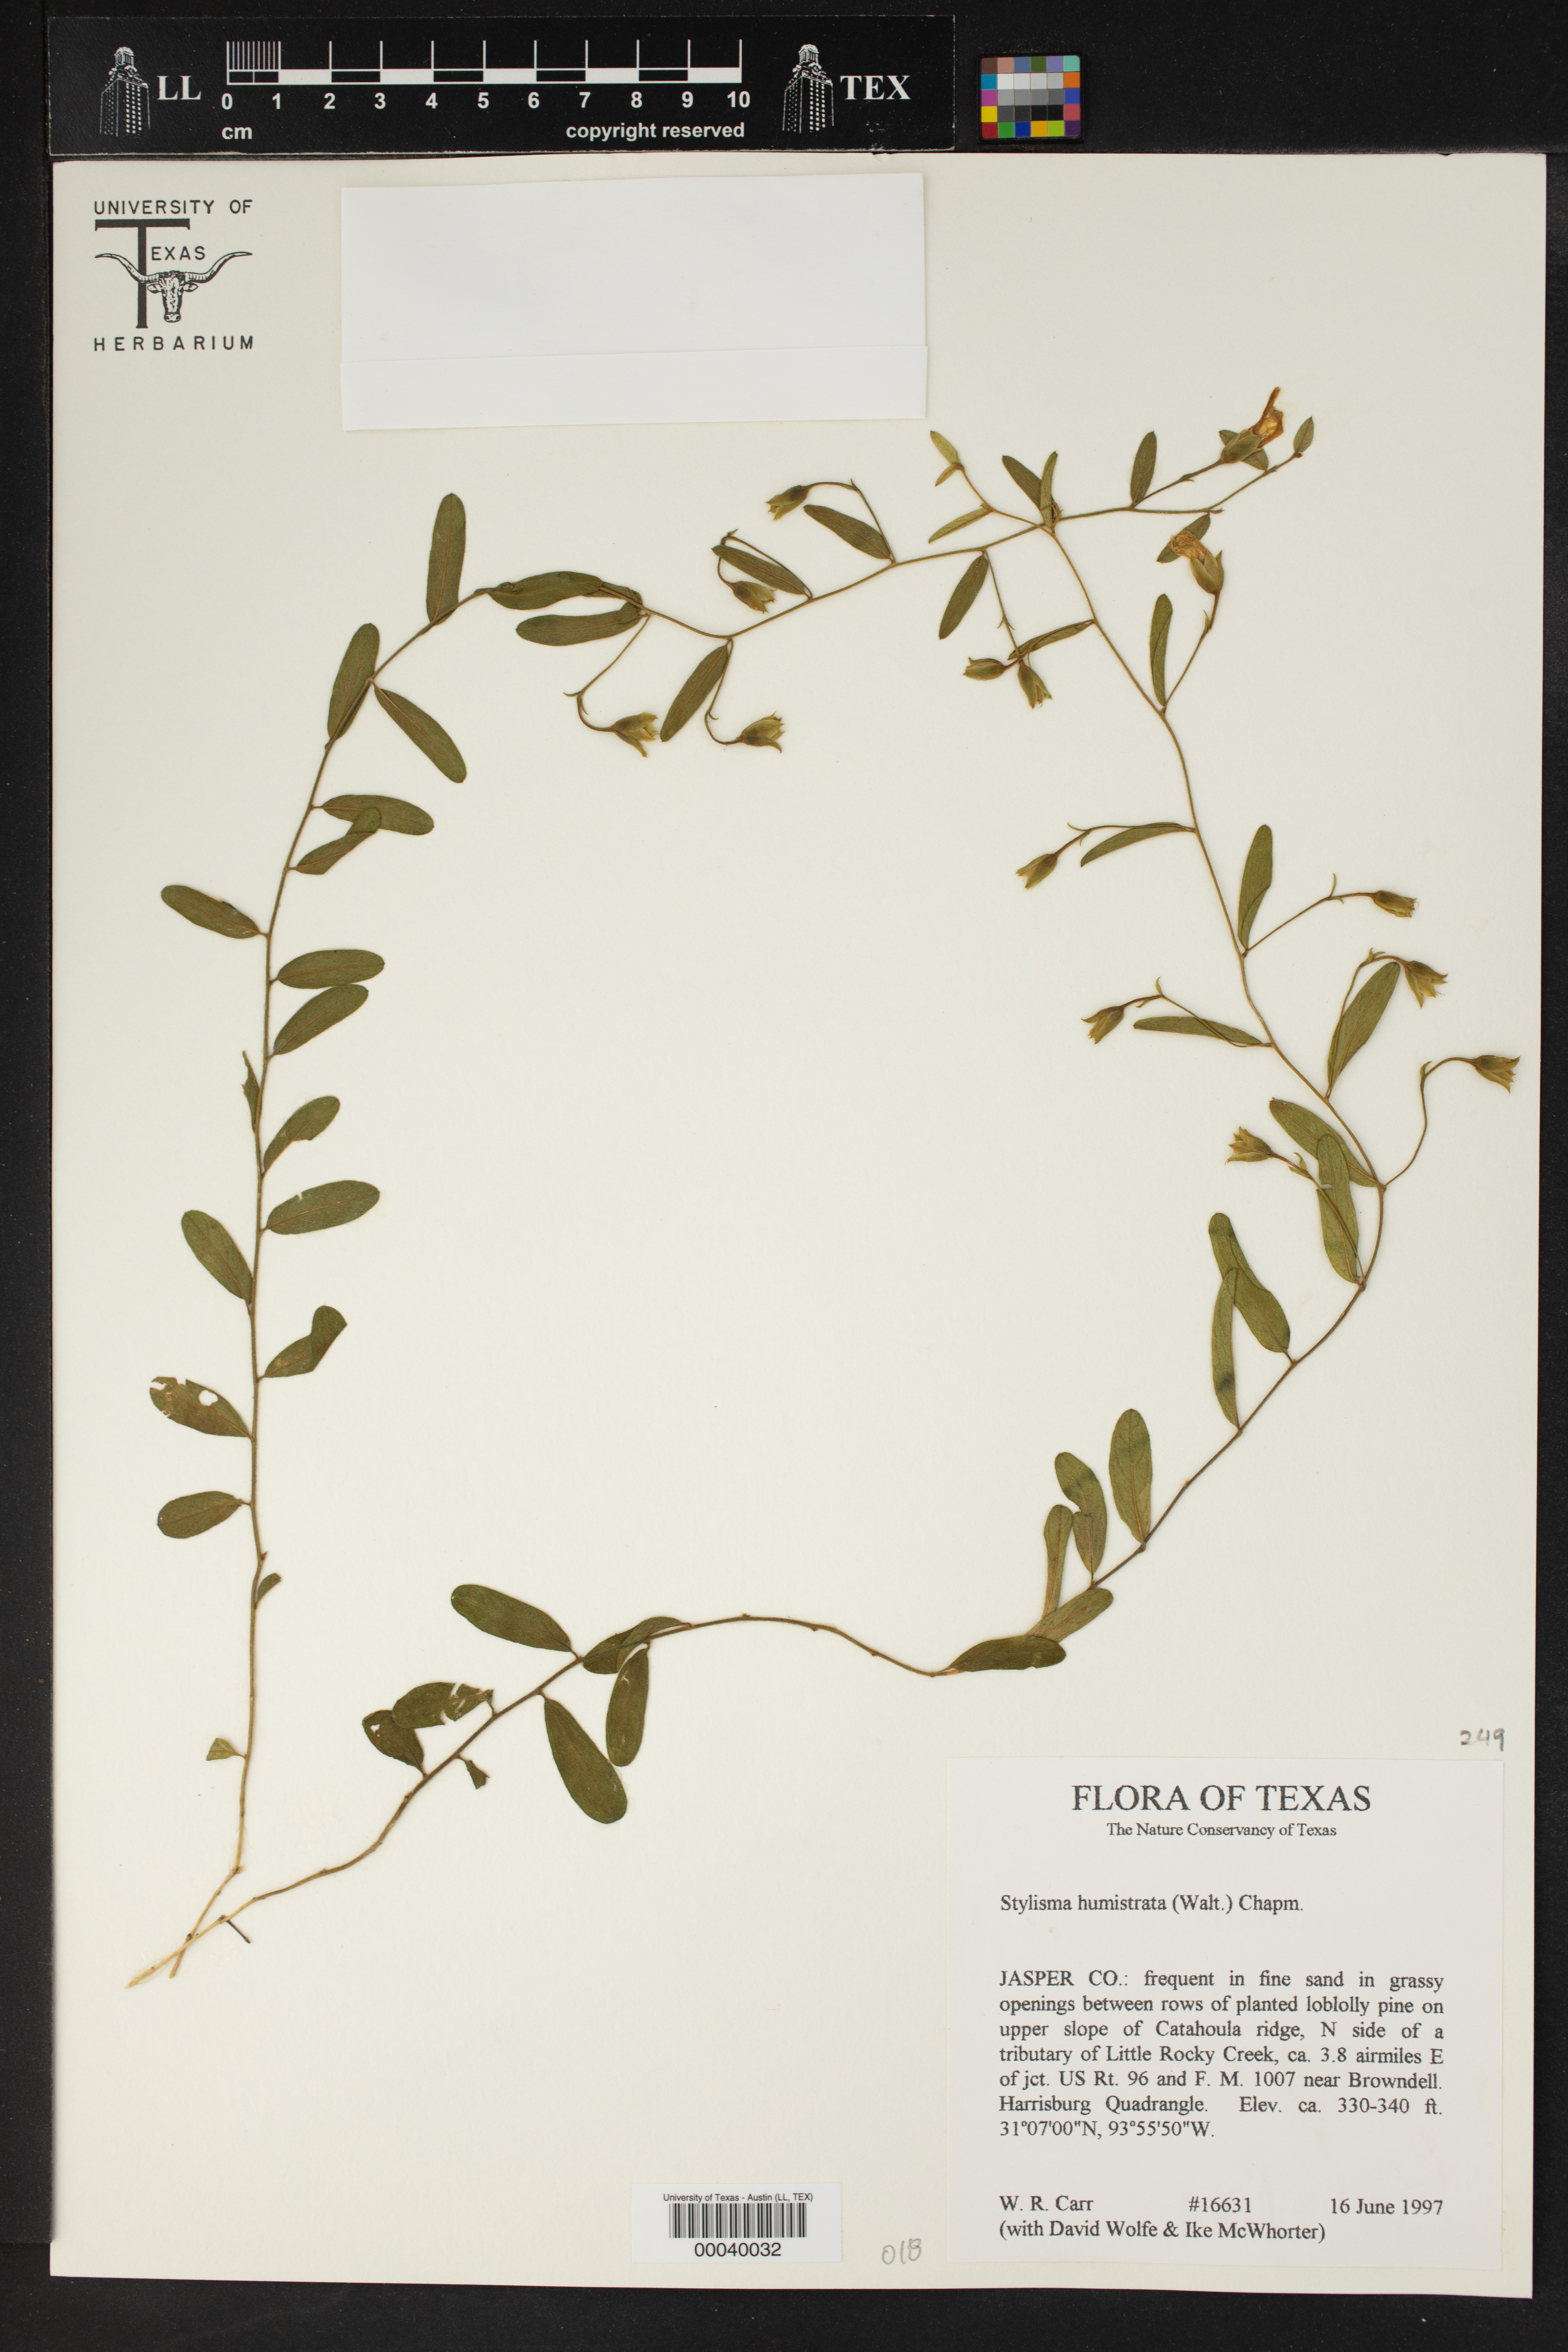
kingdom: Plantae
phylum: Tracheophyta
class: Magnoliopsida
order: Solanales
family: Convolvulaceae
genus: Stylisma
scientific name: Stylisma humistrata
